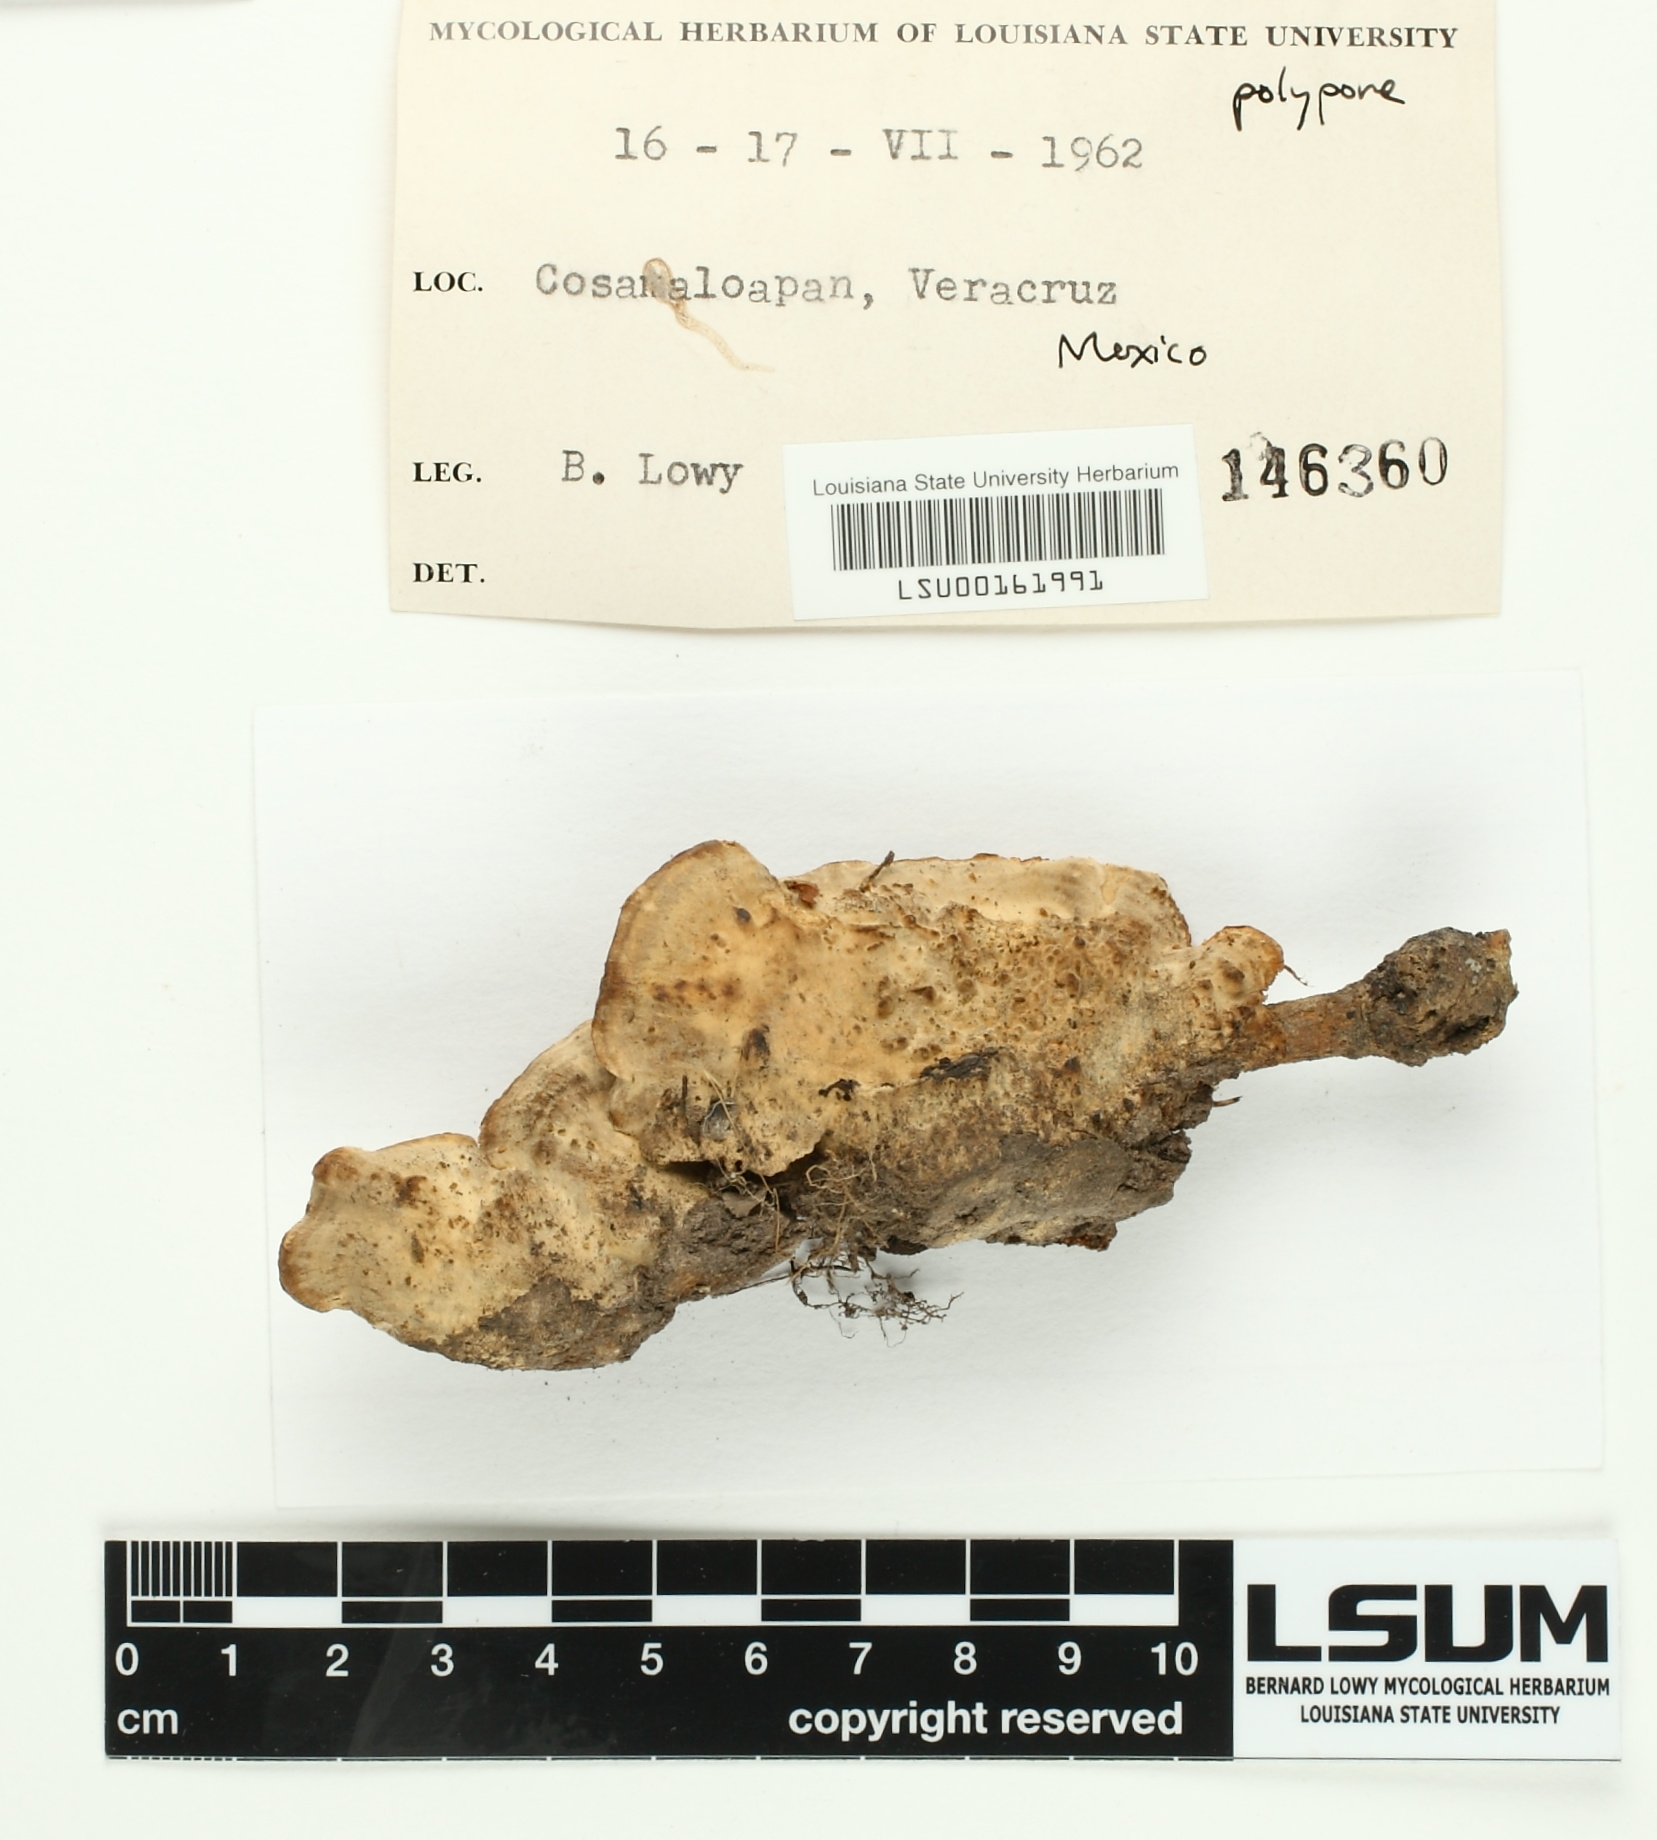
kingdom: Fungi
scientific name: Fungi
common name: Fungi
